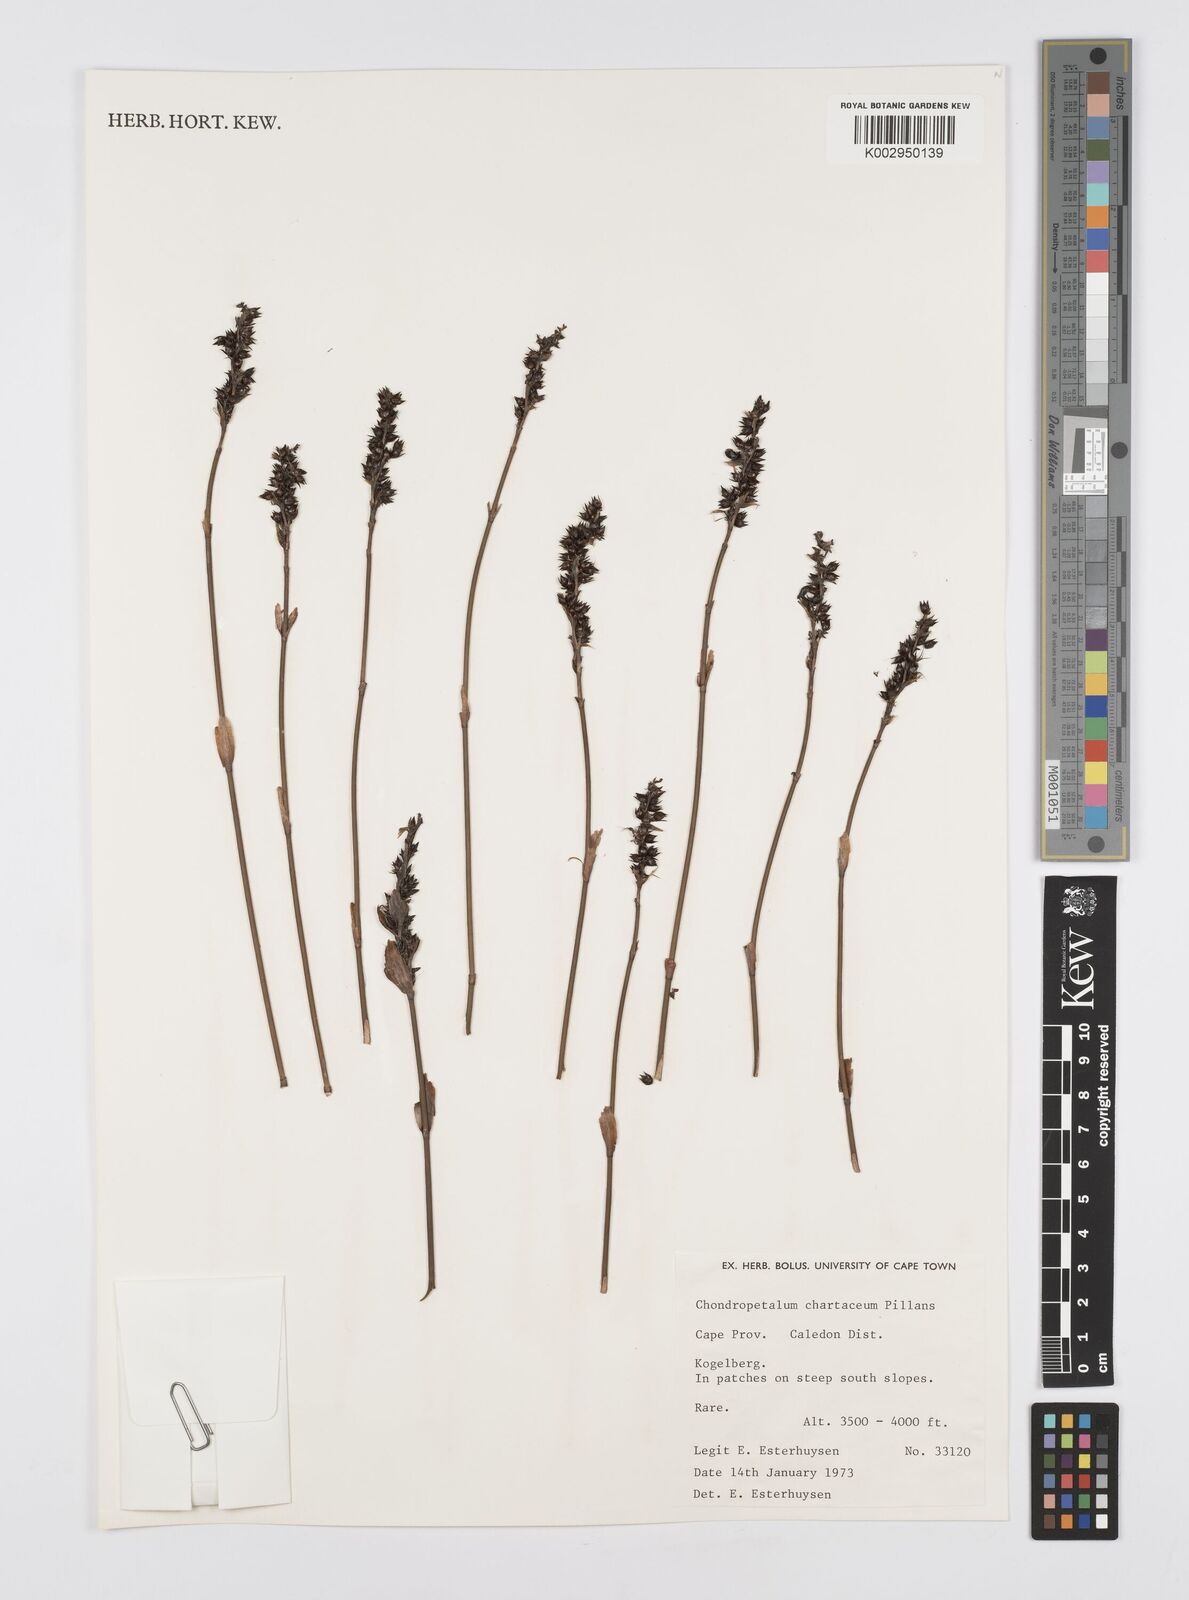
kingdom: Plantae
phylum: Tracheophyta
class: Liliopsida
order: Poales
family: Restionaceae
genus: Askidiosperma
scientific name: Askidiosperma chartaceum
